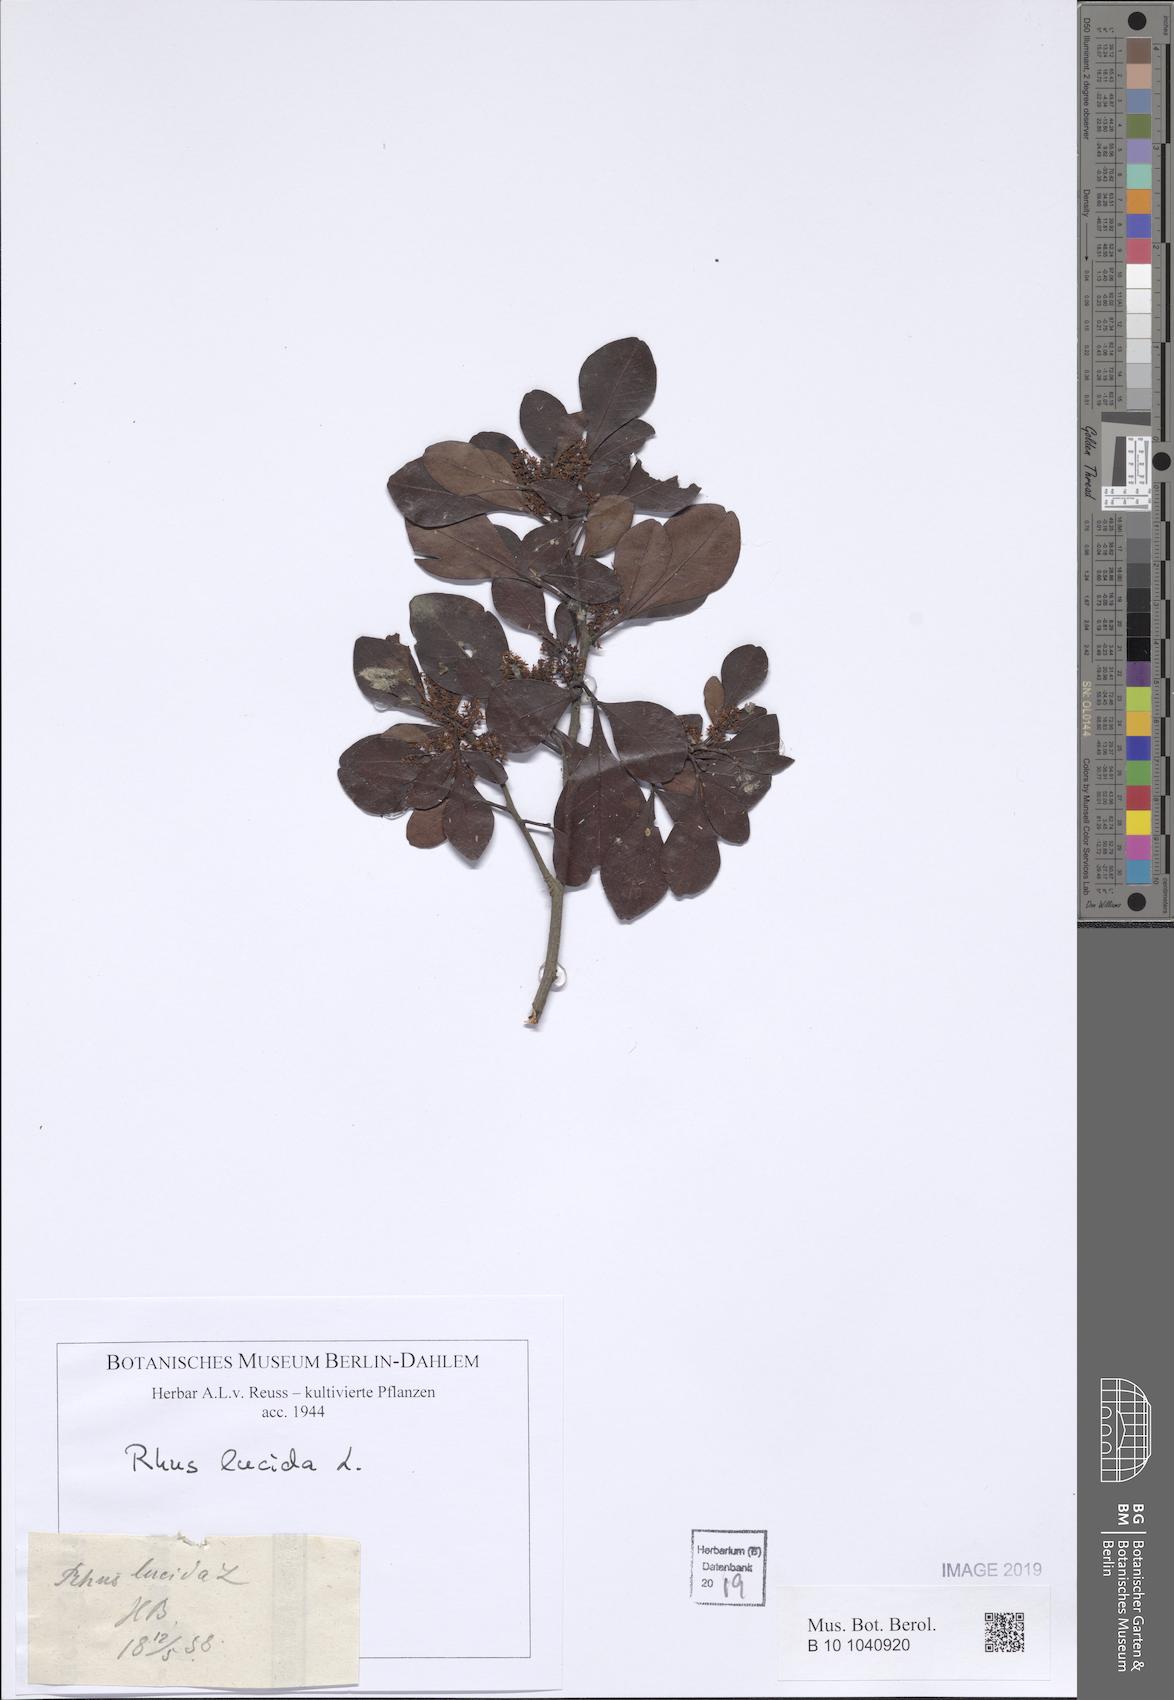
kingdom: Plantae
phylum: Tracheophyta
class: Magnoliopsida
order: Sapindales
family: Anacardiaceae
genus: Searsia
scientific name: Searsia lucida
